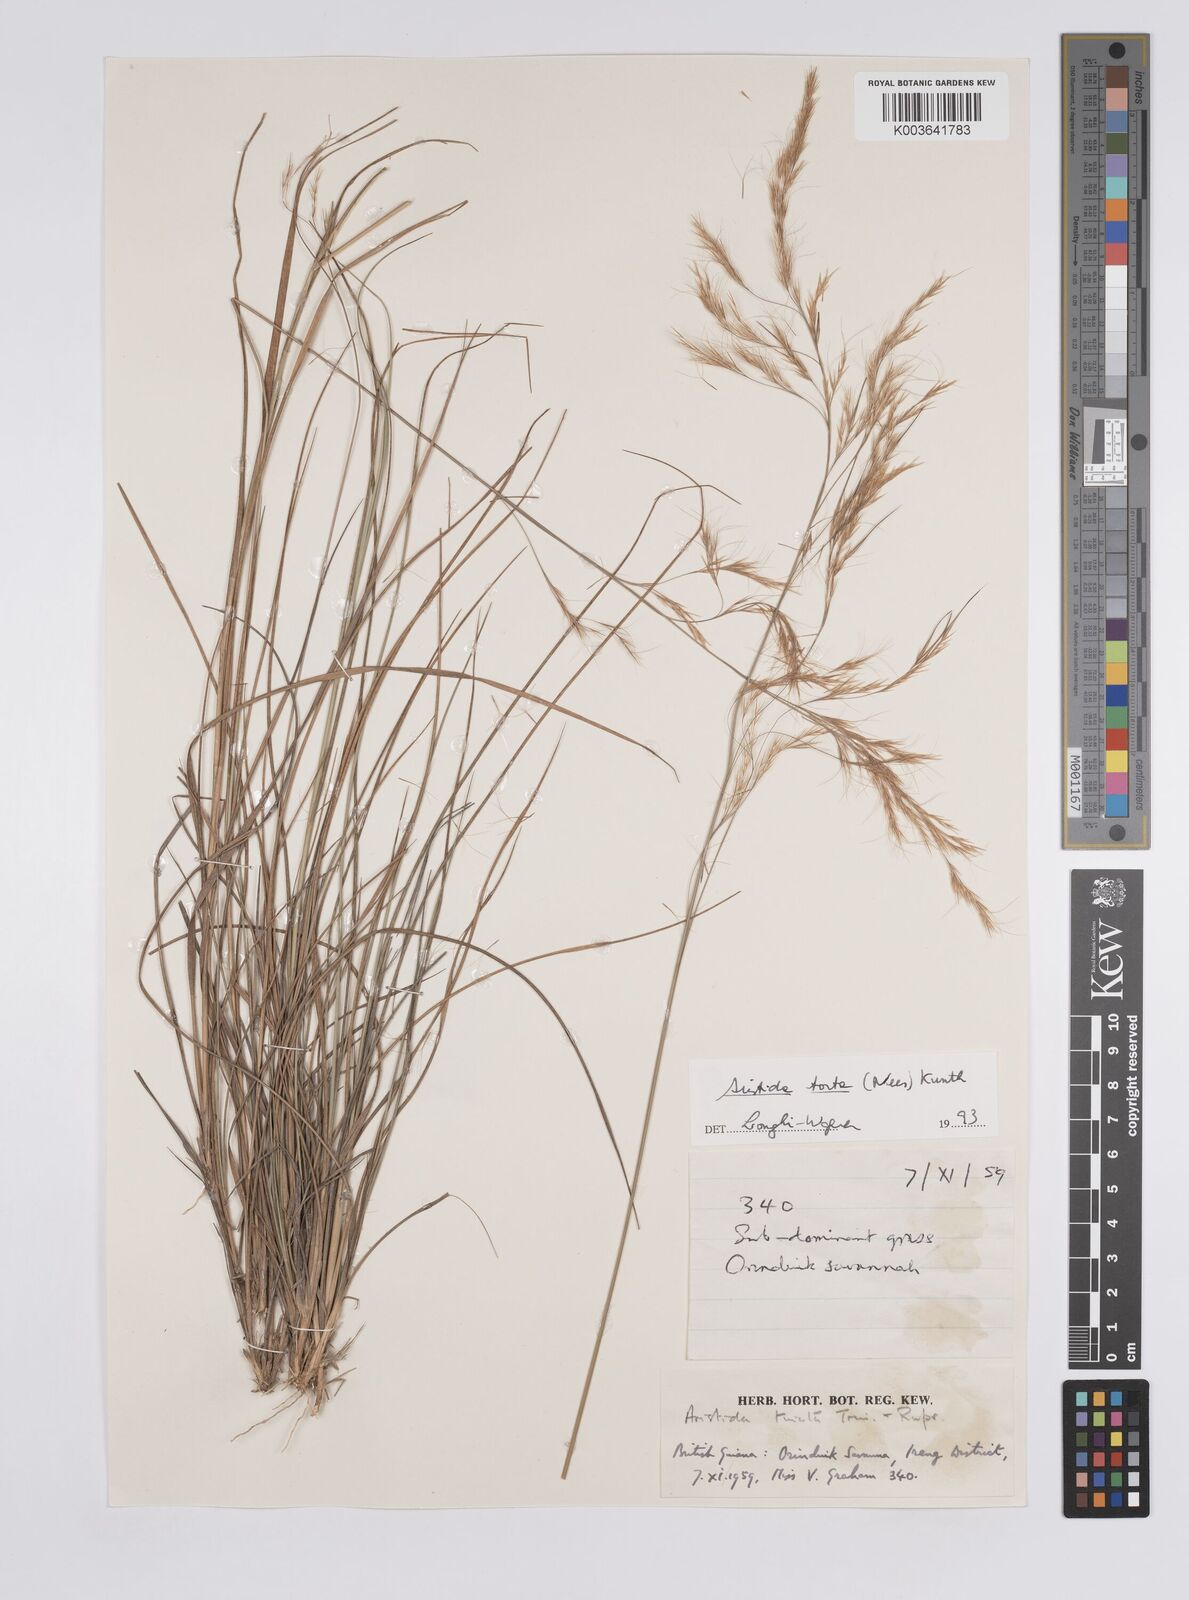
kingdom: Plantae
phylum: Tracheophyta
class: Liliopsida
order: Poales
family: Poaceae
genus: Aristida
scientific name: Aristida torta
